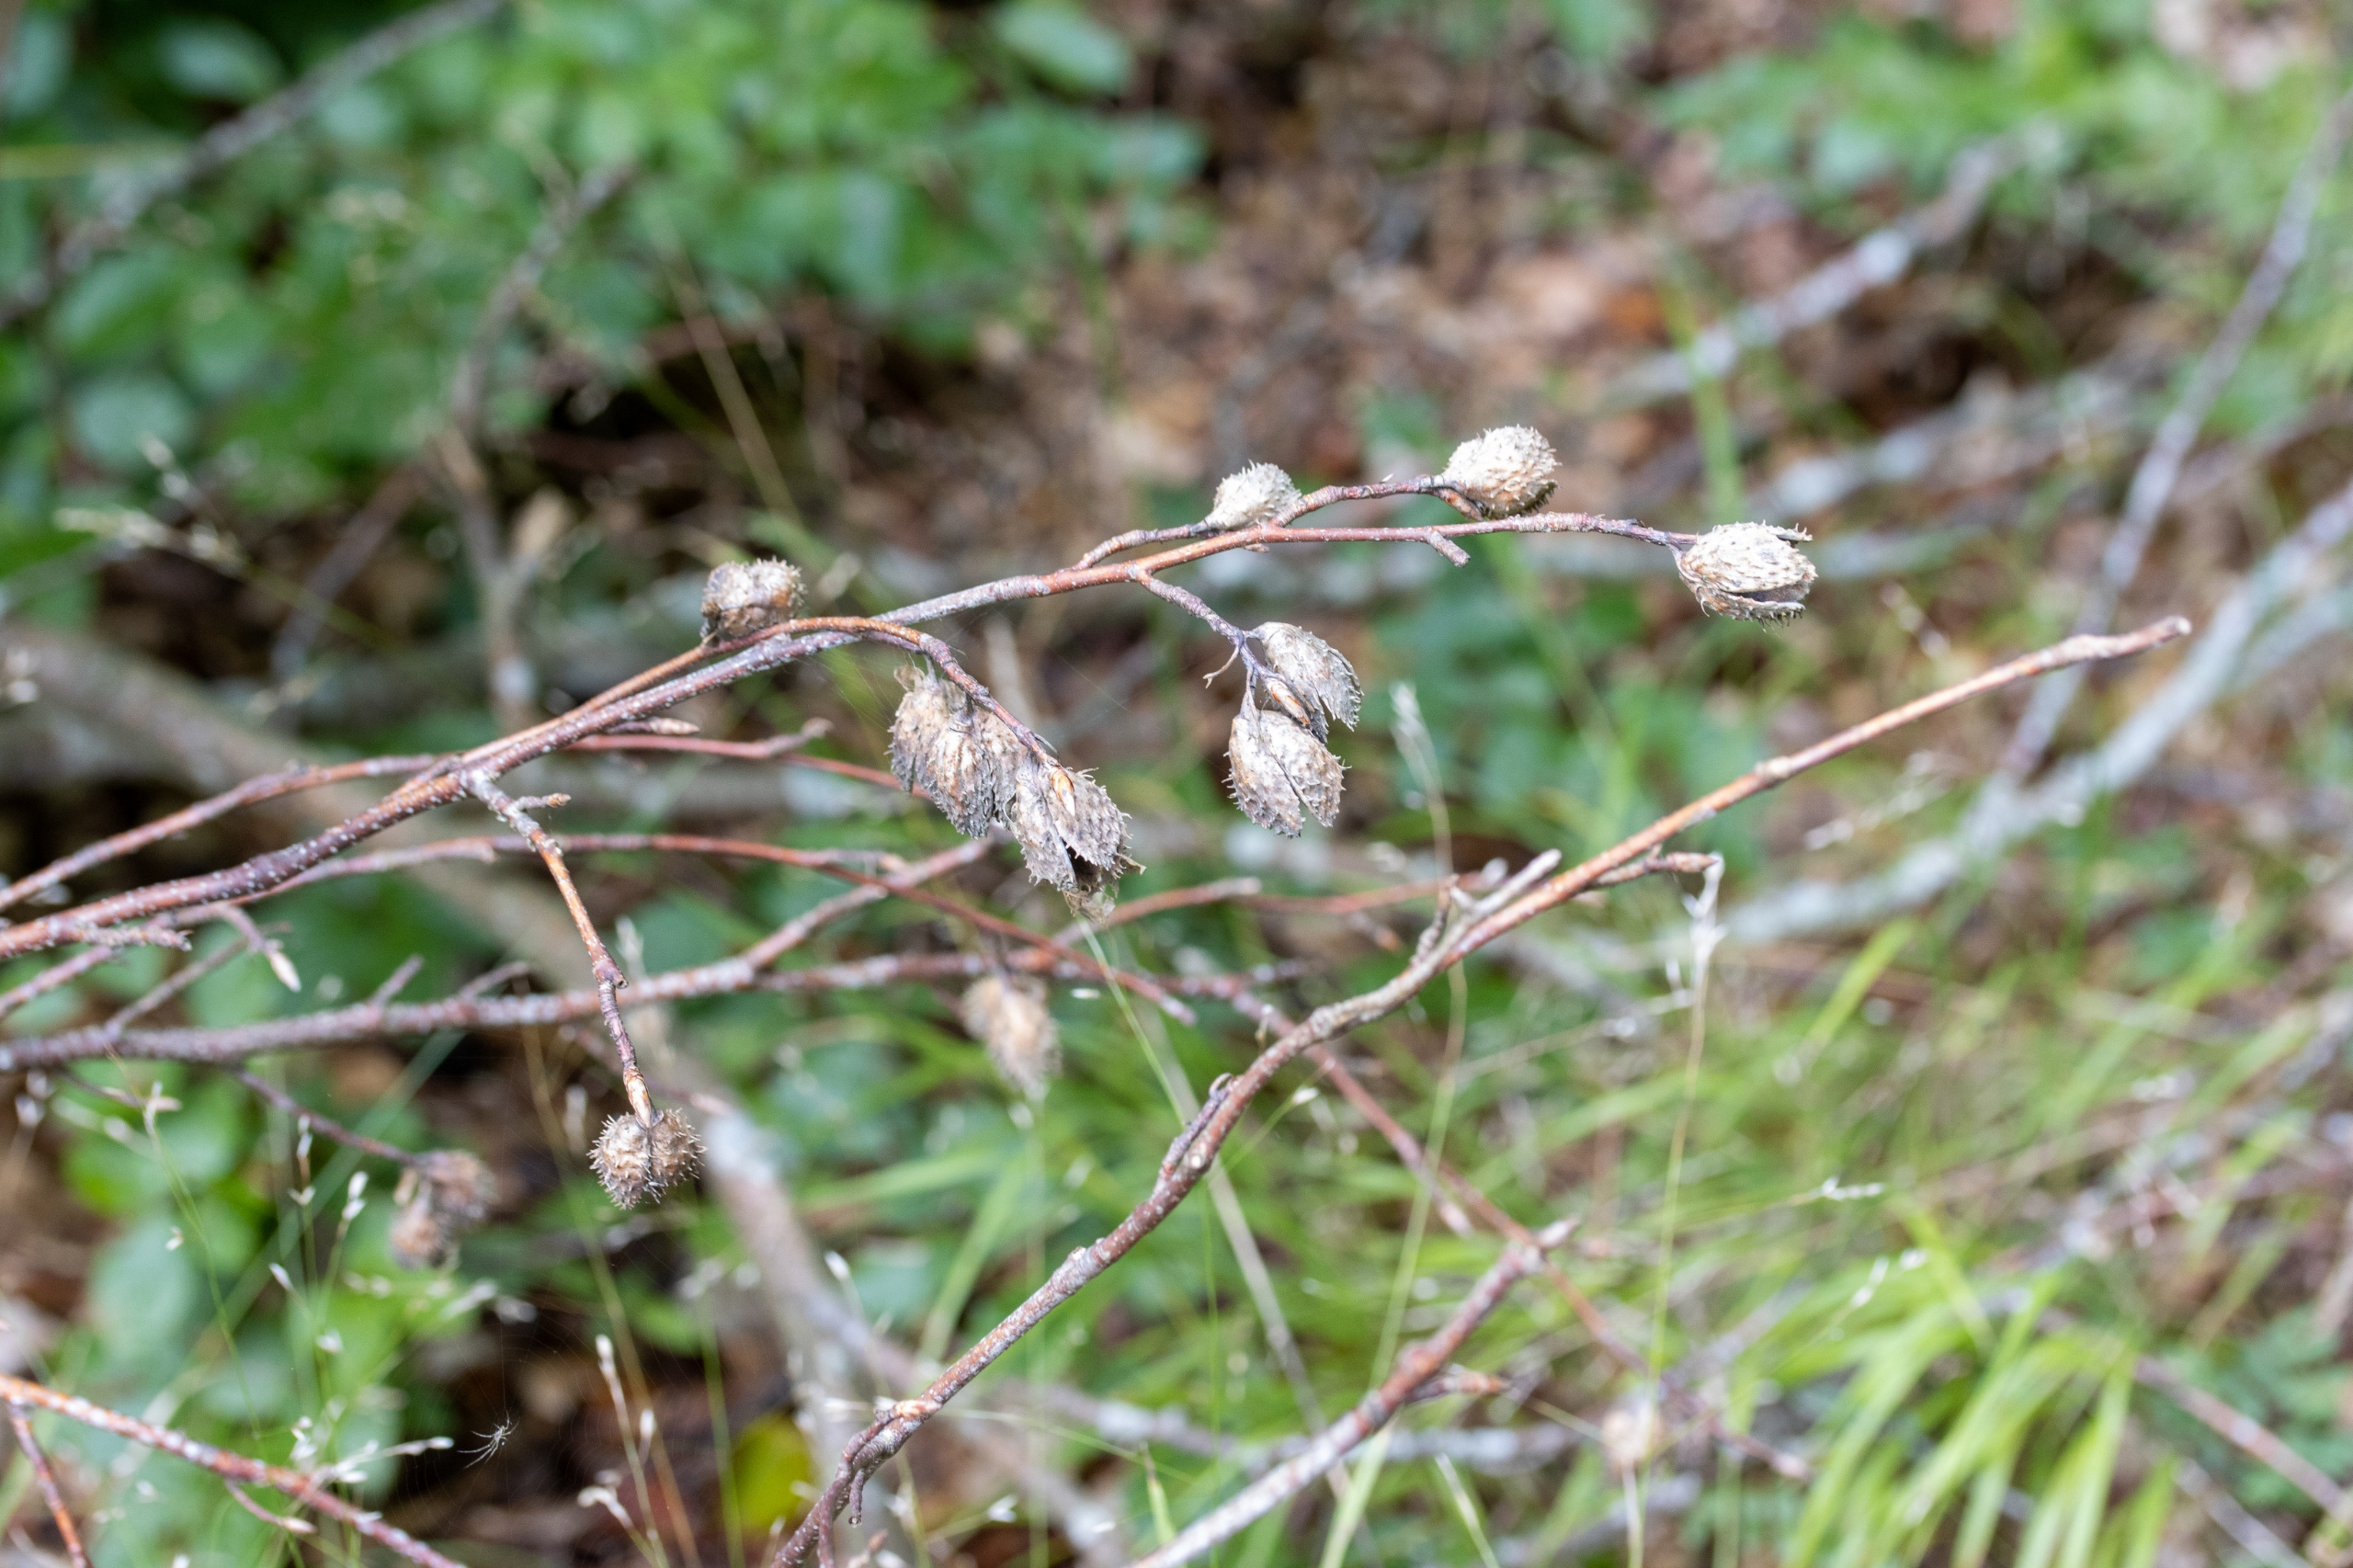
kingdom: Plantae
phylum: Tracheophyta
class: Magnoliopsida
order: Fagales
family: Fagaceae
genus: Fagus
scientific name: Fagus sylvatica
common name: Bøg
